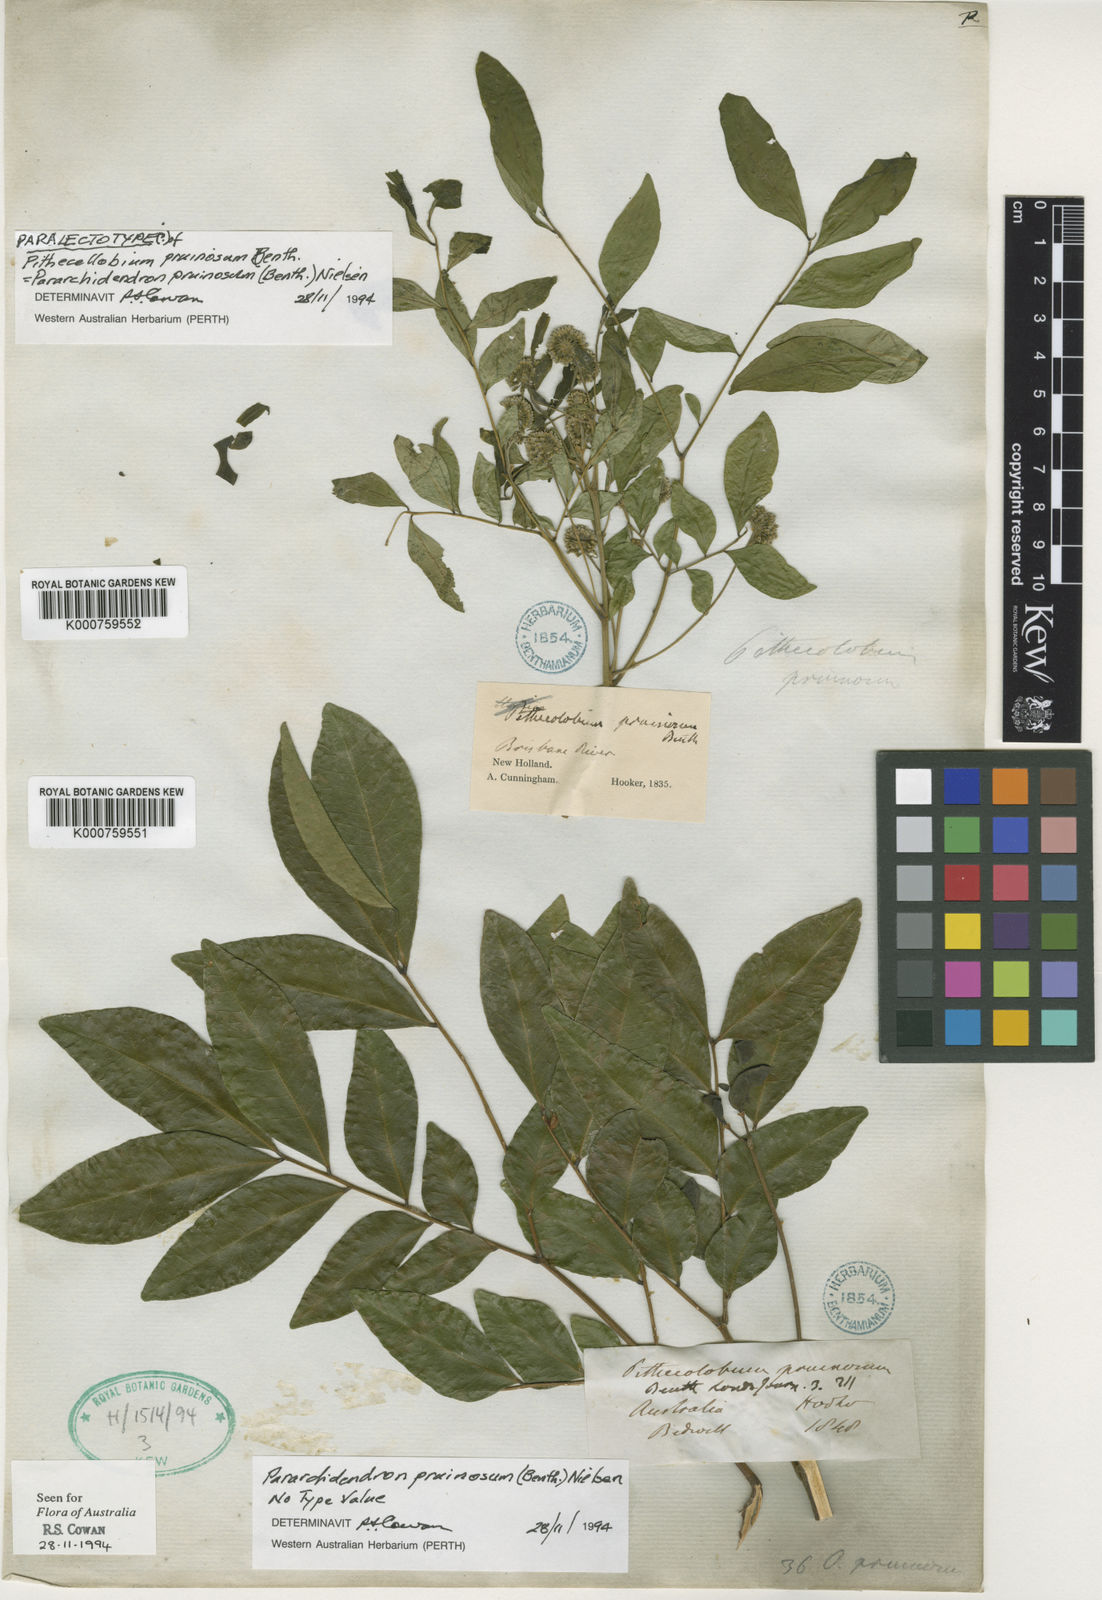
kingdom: Plantae
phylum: Tracheophyta
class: Magnoliopsida
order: Fabales
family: Fabaceae
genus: Pararchidendron
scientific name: Pararchidendron pruinosum
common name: Tulip siris
